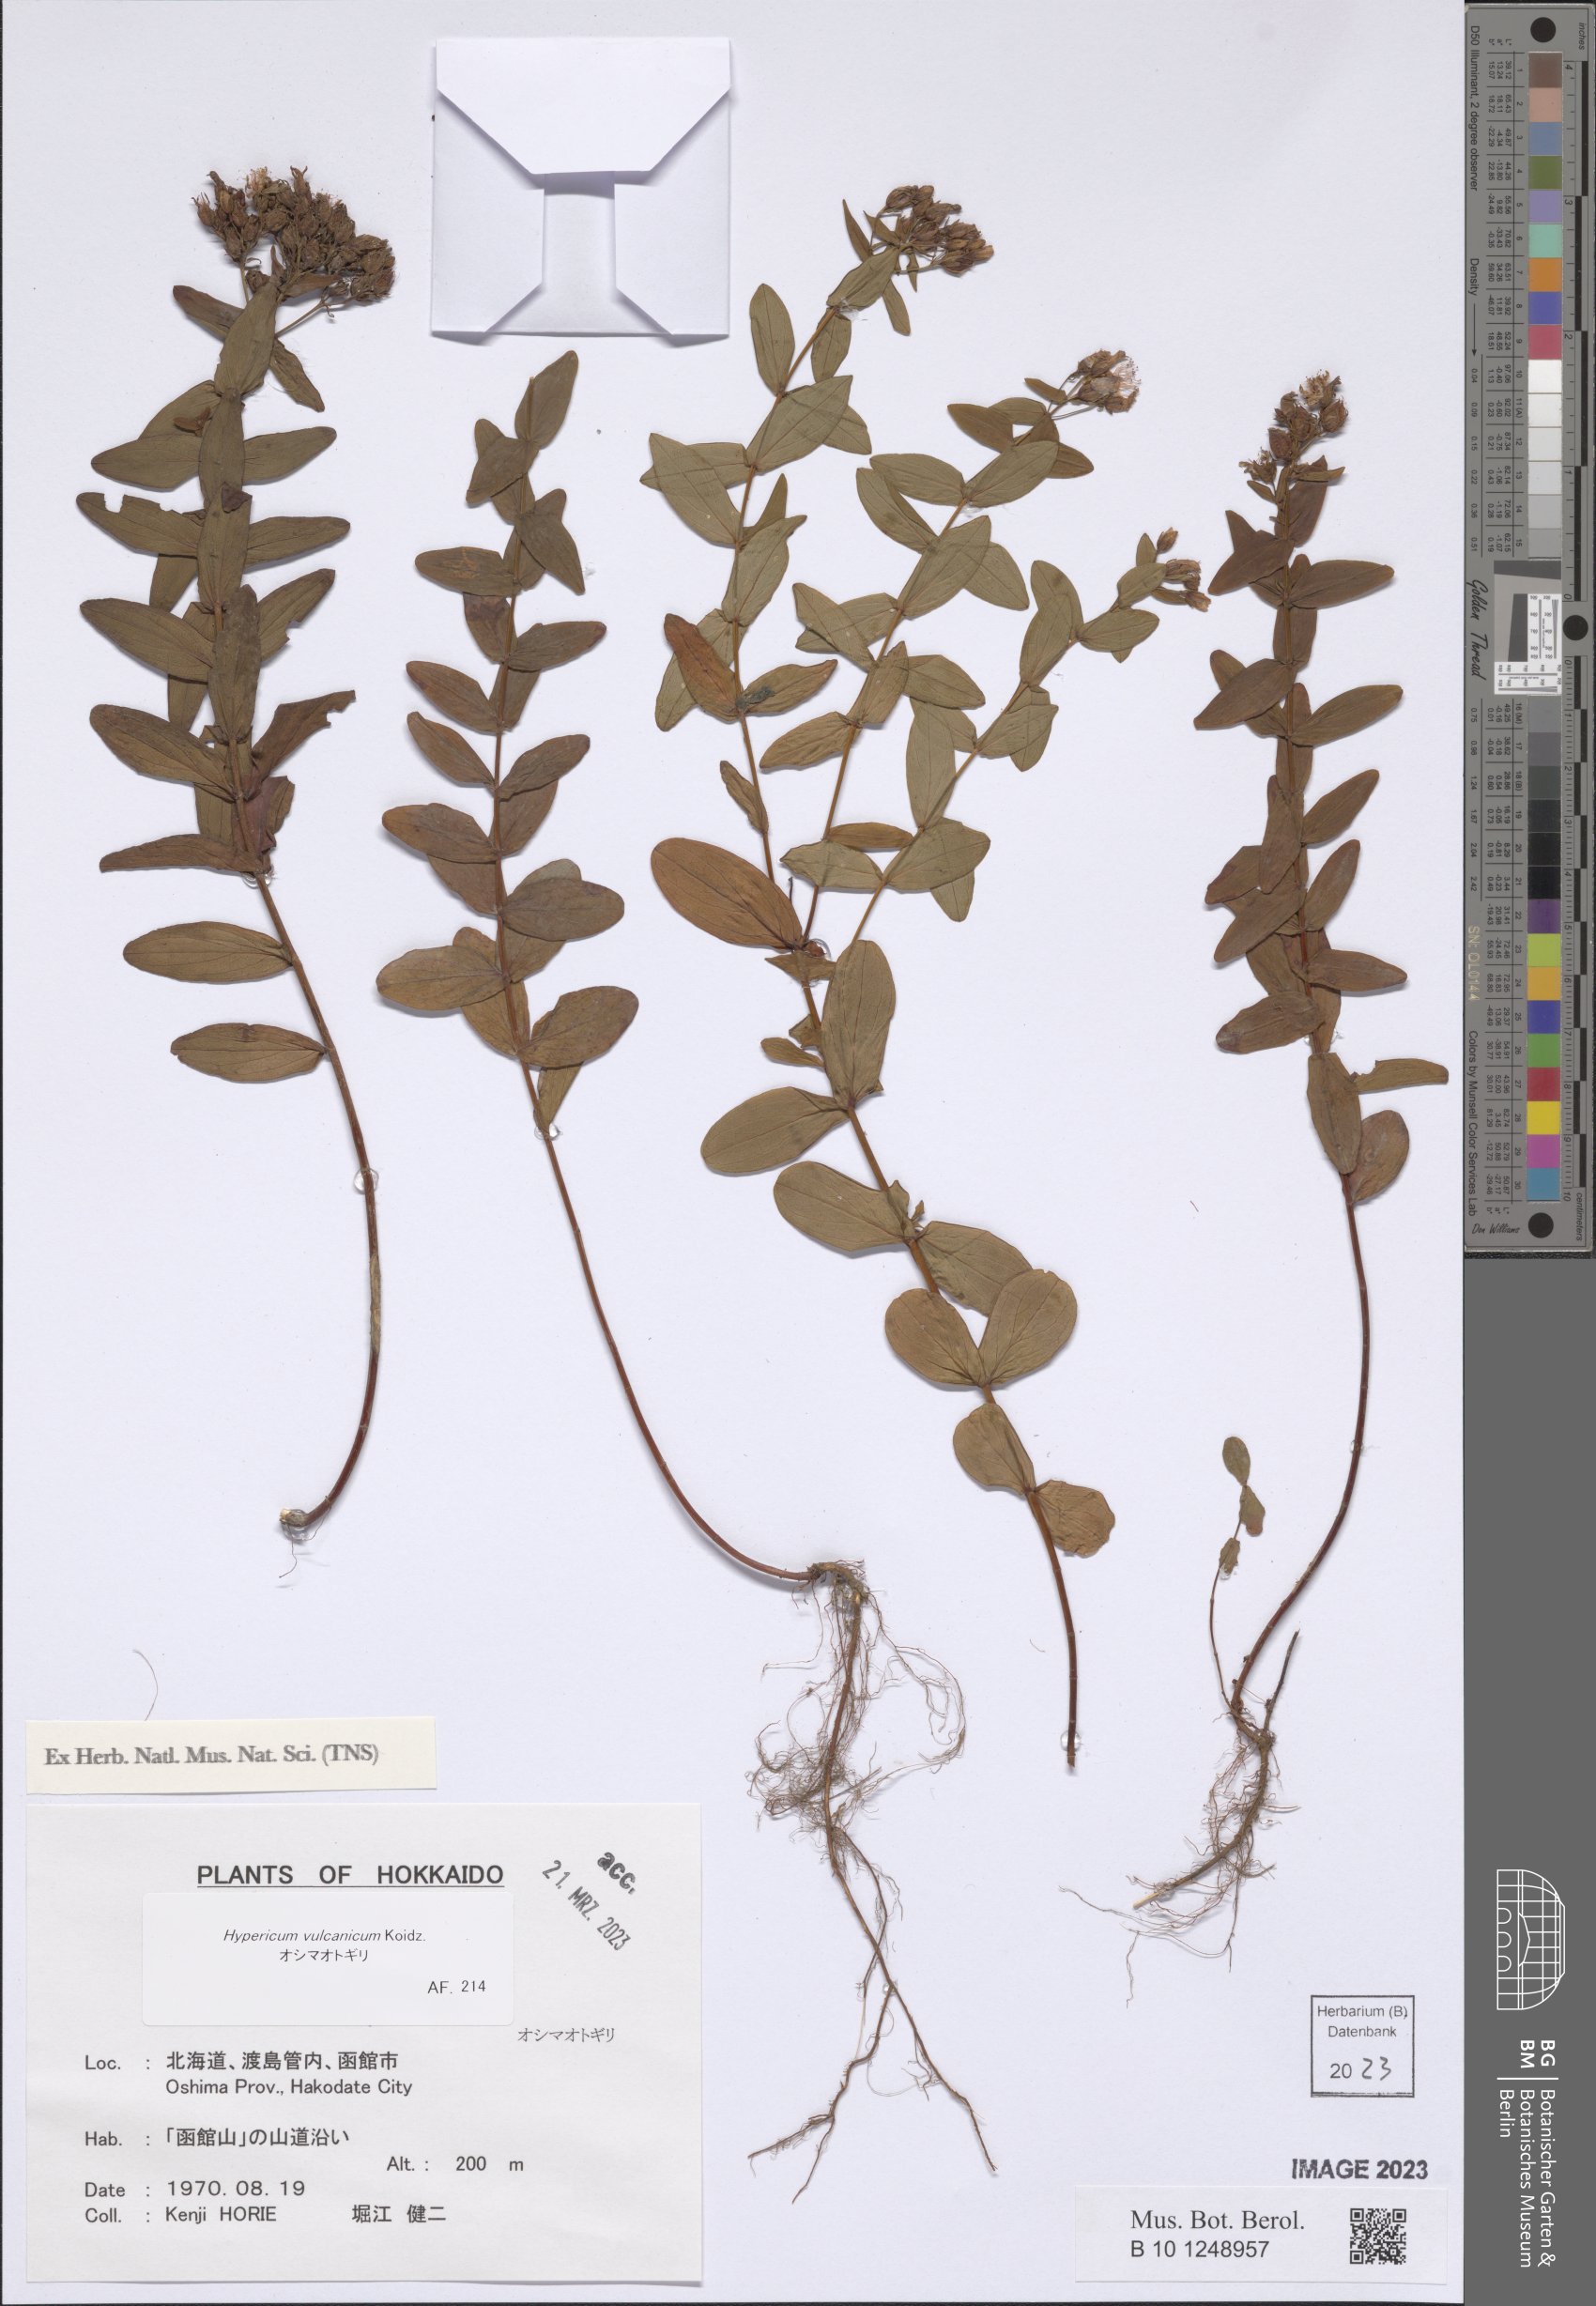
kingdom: Plantae
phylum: Tracheophyta
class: Magnoliopsida
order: Malpighiales
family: Hypericaceae
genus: Hypericum
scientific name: Hypericum vulcanicum
